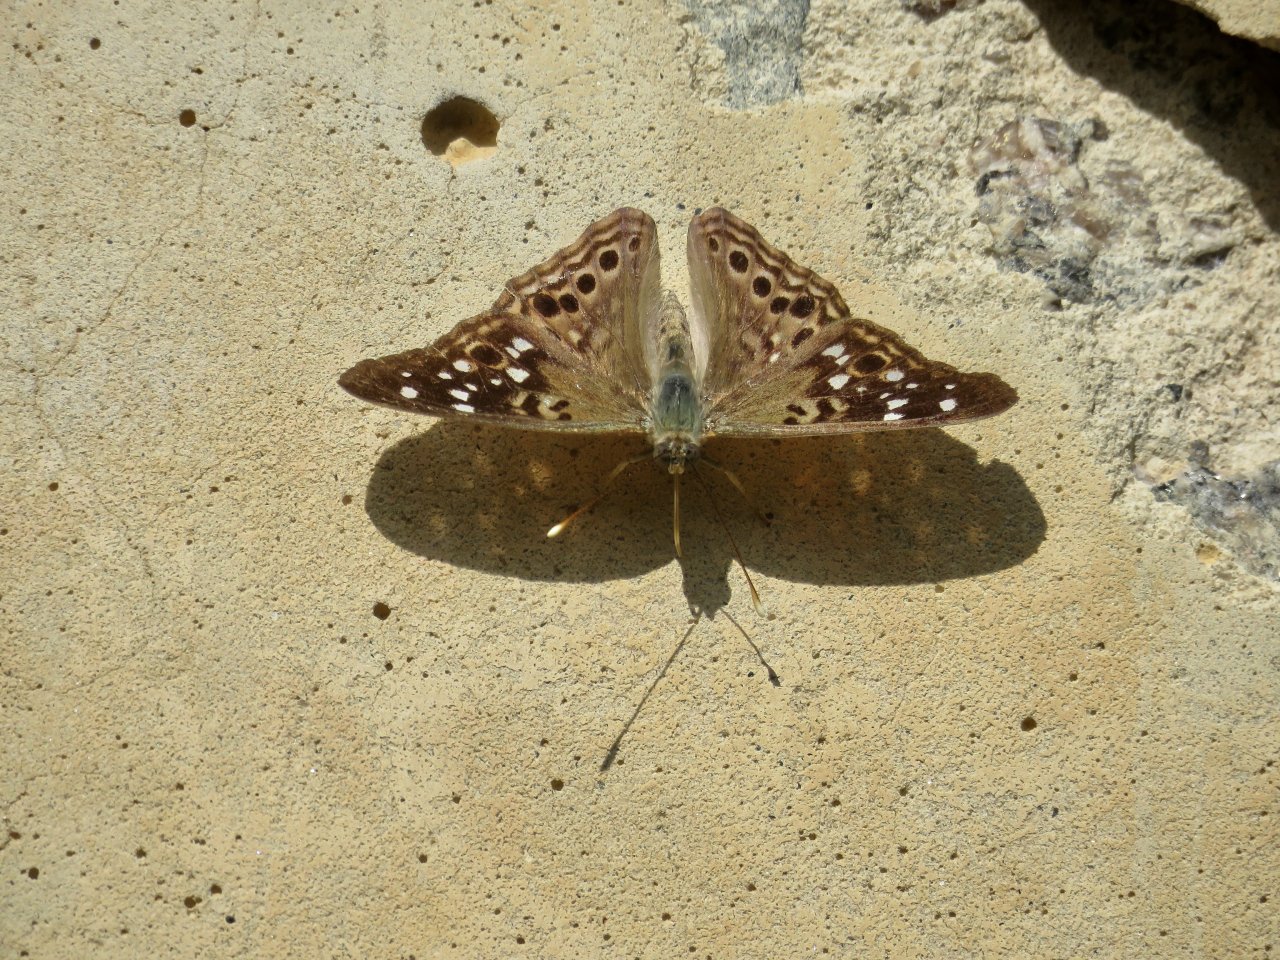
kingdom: Animalia
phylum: Arthropoda
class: Insecta
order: Lepidoptera
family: Nymphalidae
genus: Asterocampa
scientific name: Asterocampa celtis
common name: Hackberry Emperor
